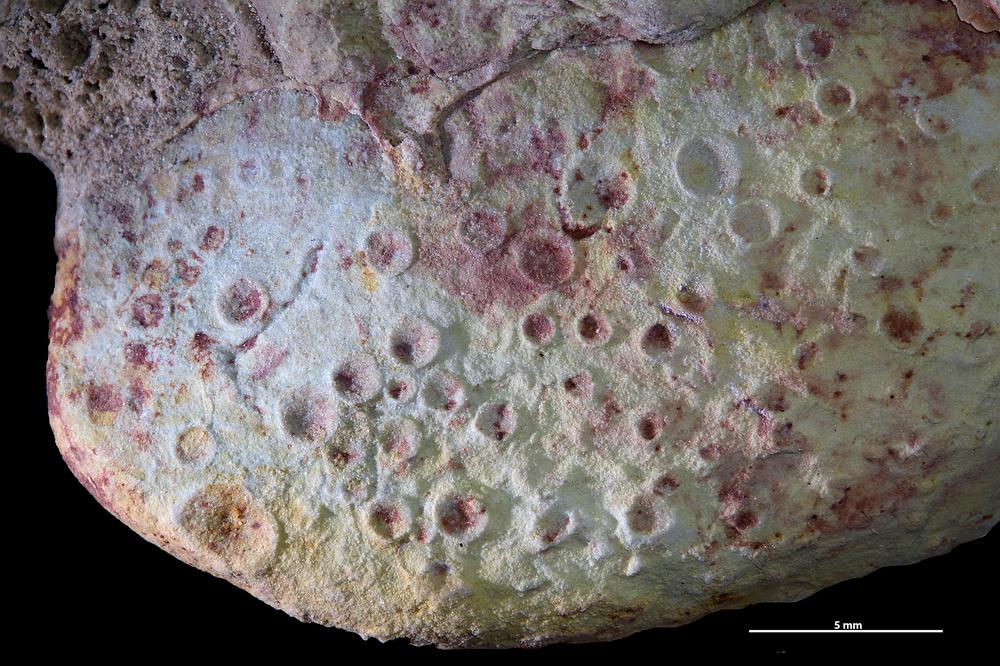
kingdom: Animalia
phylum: Brachiopoda
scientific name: Brachiopoda
